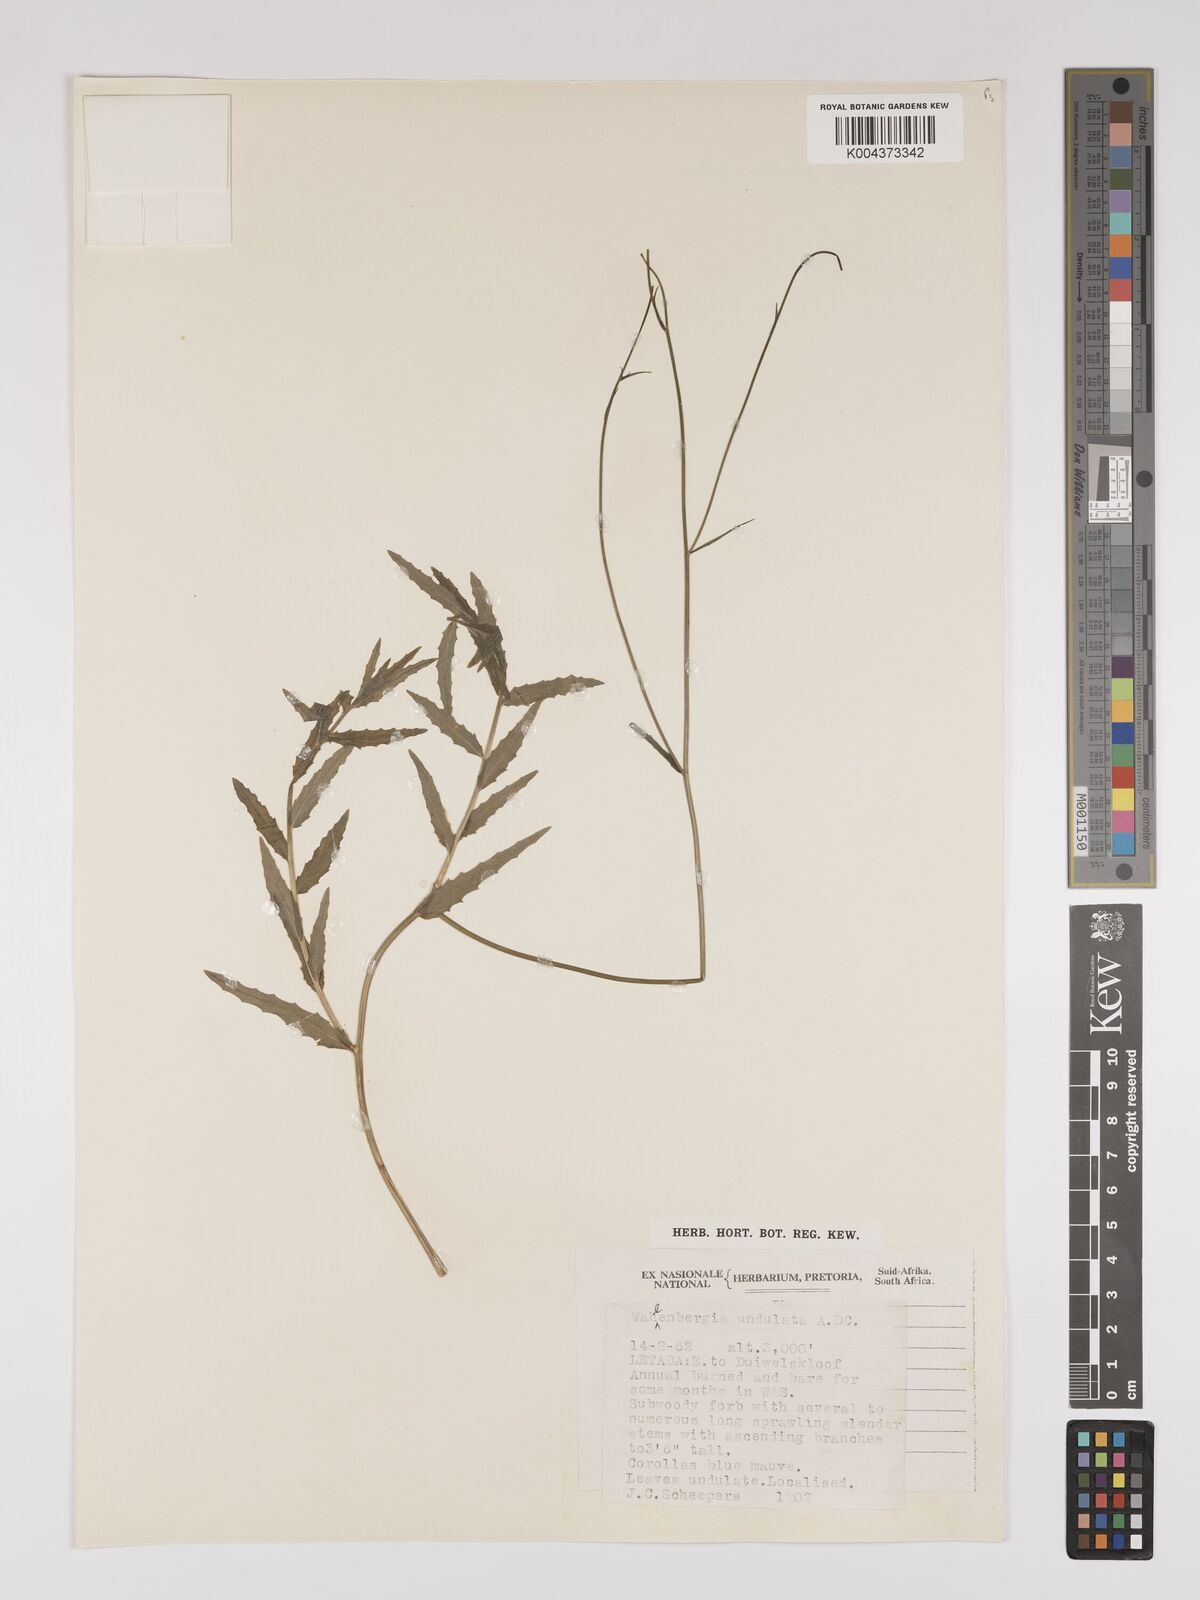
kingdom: Plantae
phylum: Tracheophyta
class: Magnoliopsida
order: Asterales
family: Campanulaceae
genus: Wahlenbergia
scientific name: Wahlenbergia undulata
